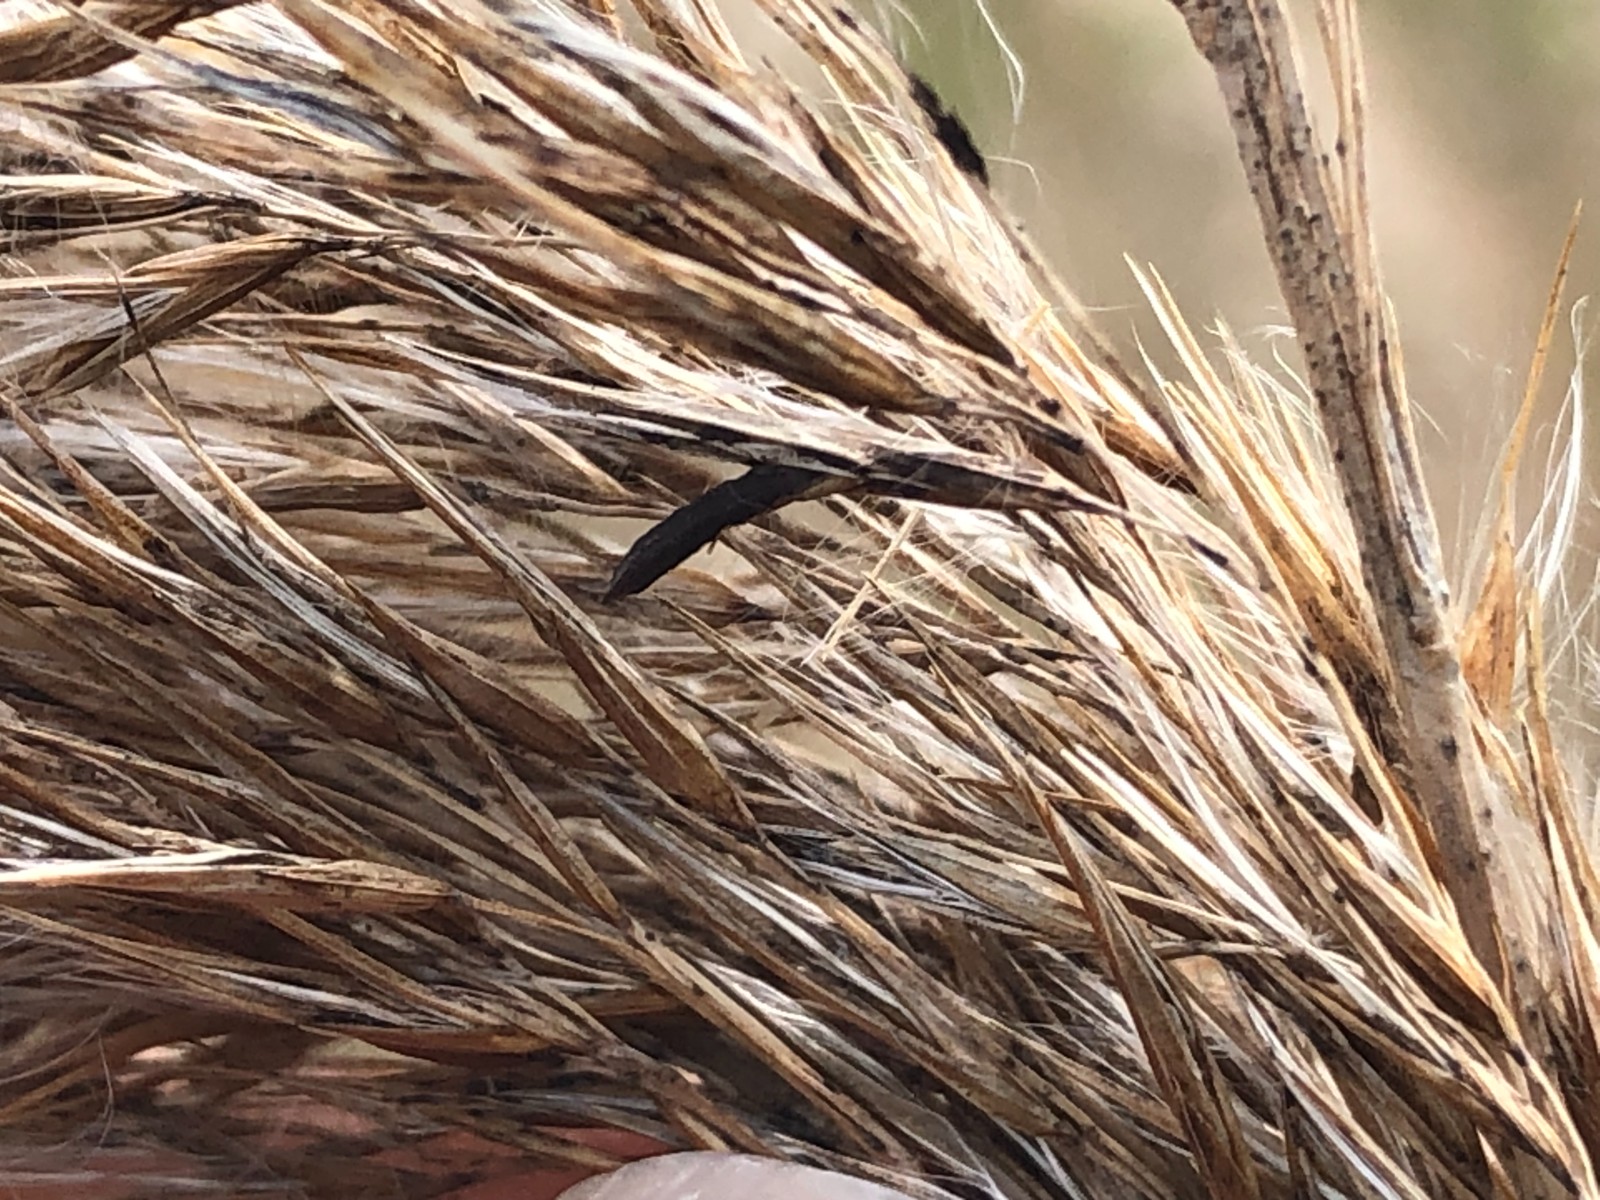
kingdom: Fungi
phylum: Ascomycota
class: Sordariomycetes
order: Hypocreales
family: Clavicipitaceae
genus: Claviceps
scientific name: Claviceps arundinis
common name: tagrør-meldrøjer
